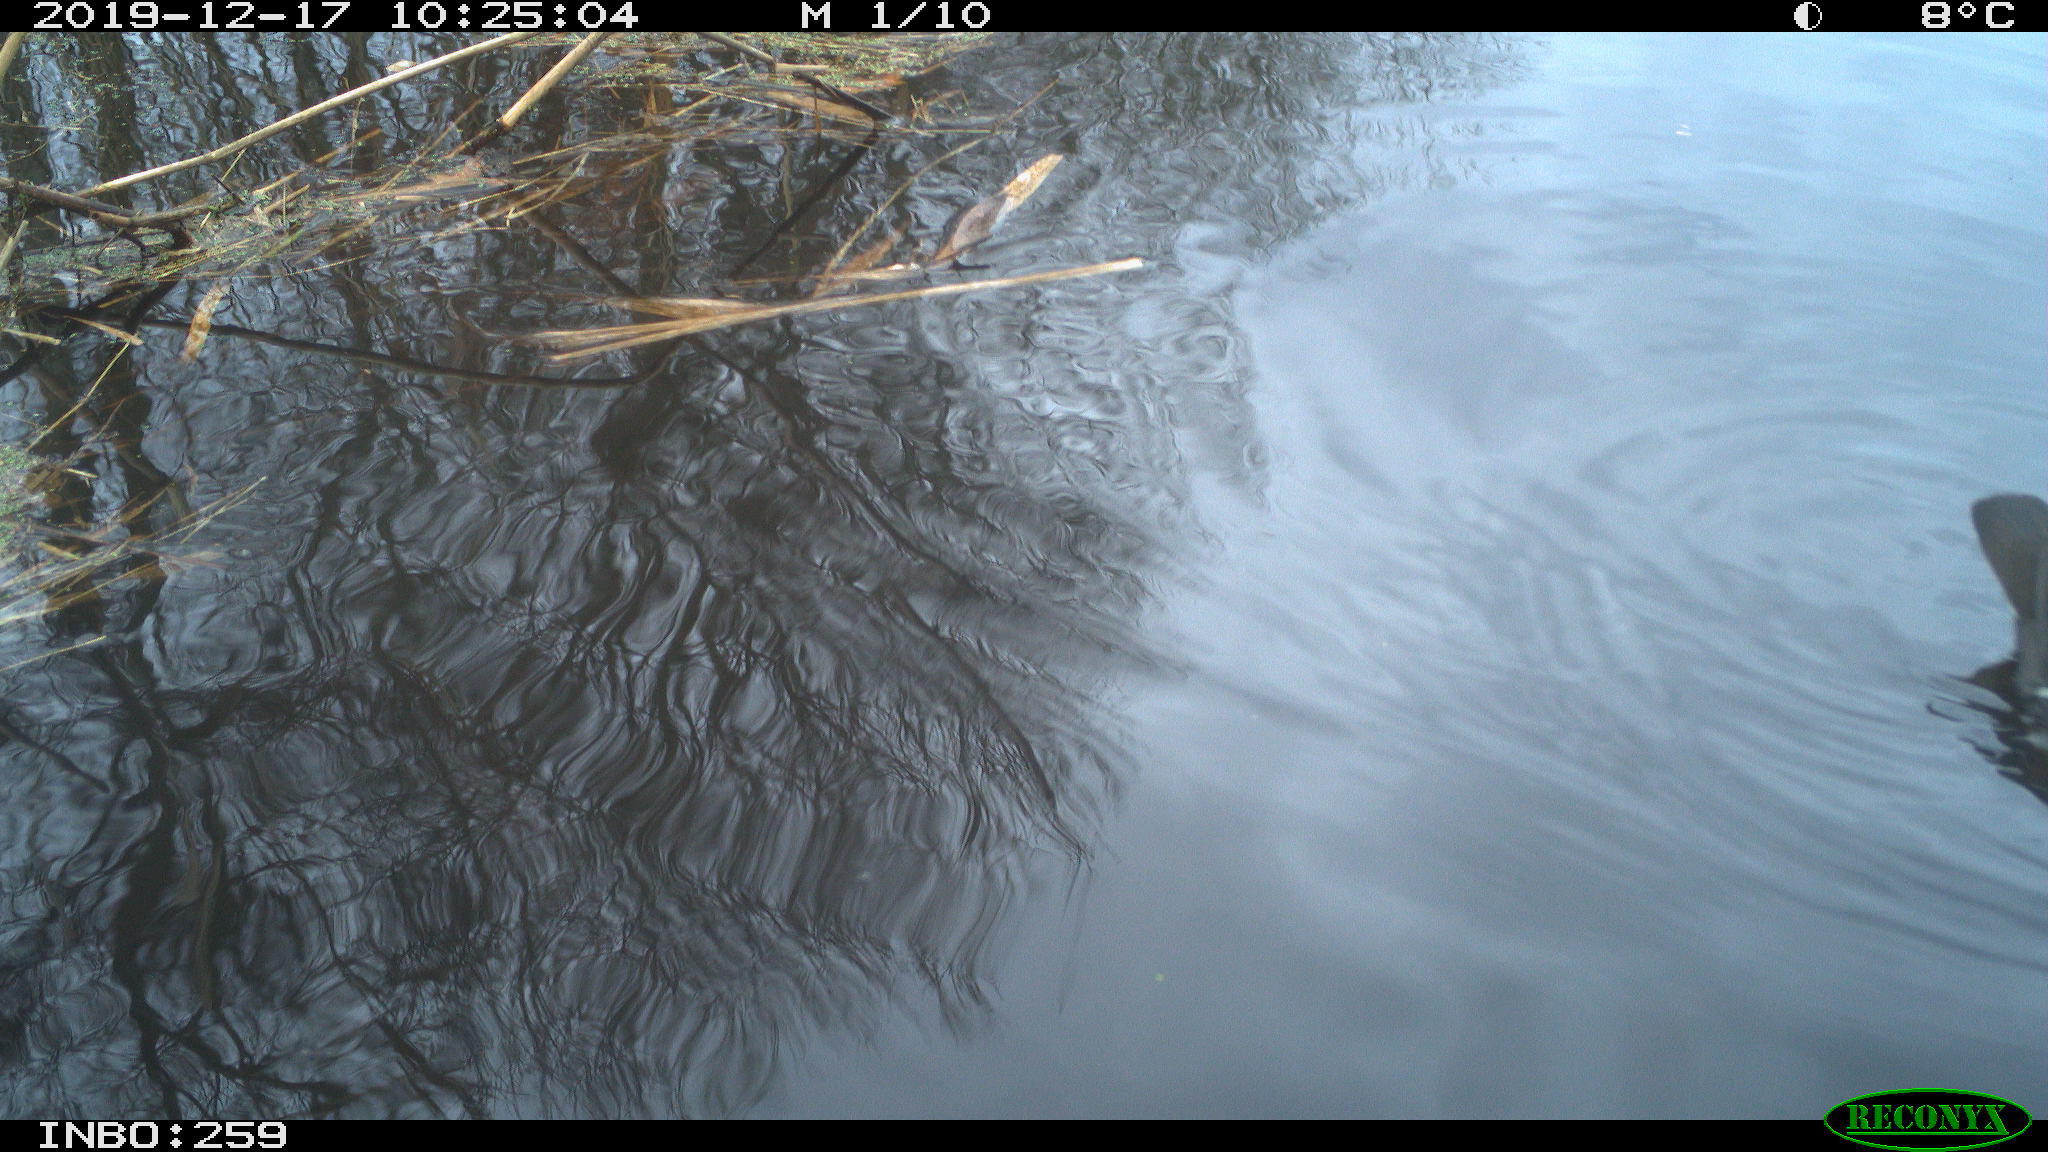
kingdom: Animalia
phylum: Chordata
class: Aves
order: Gruiformes
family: Rallidae
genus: Gallinula
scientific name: Gallinula chloropus
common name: Common moorhen
